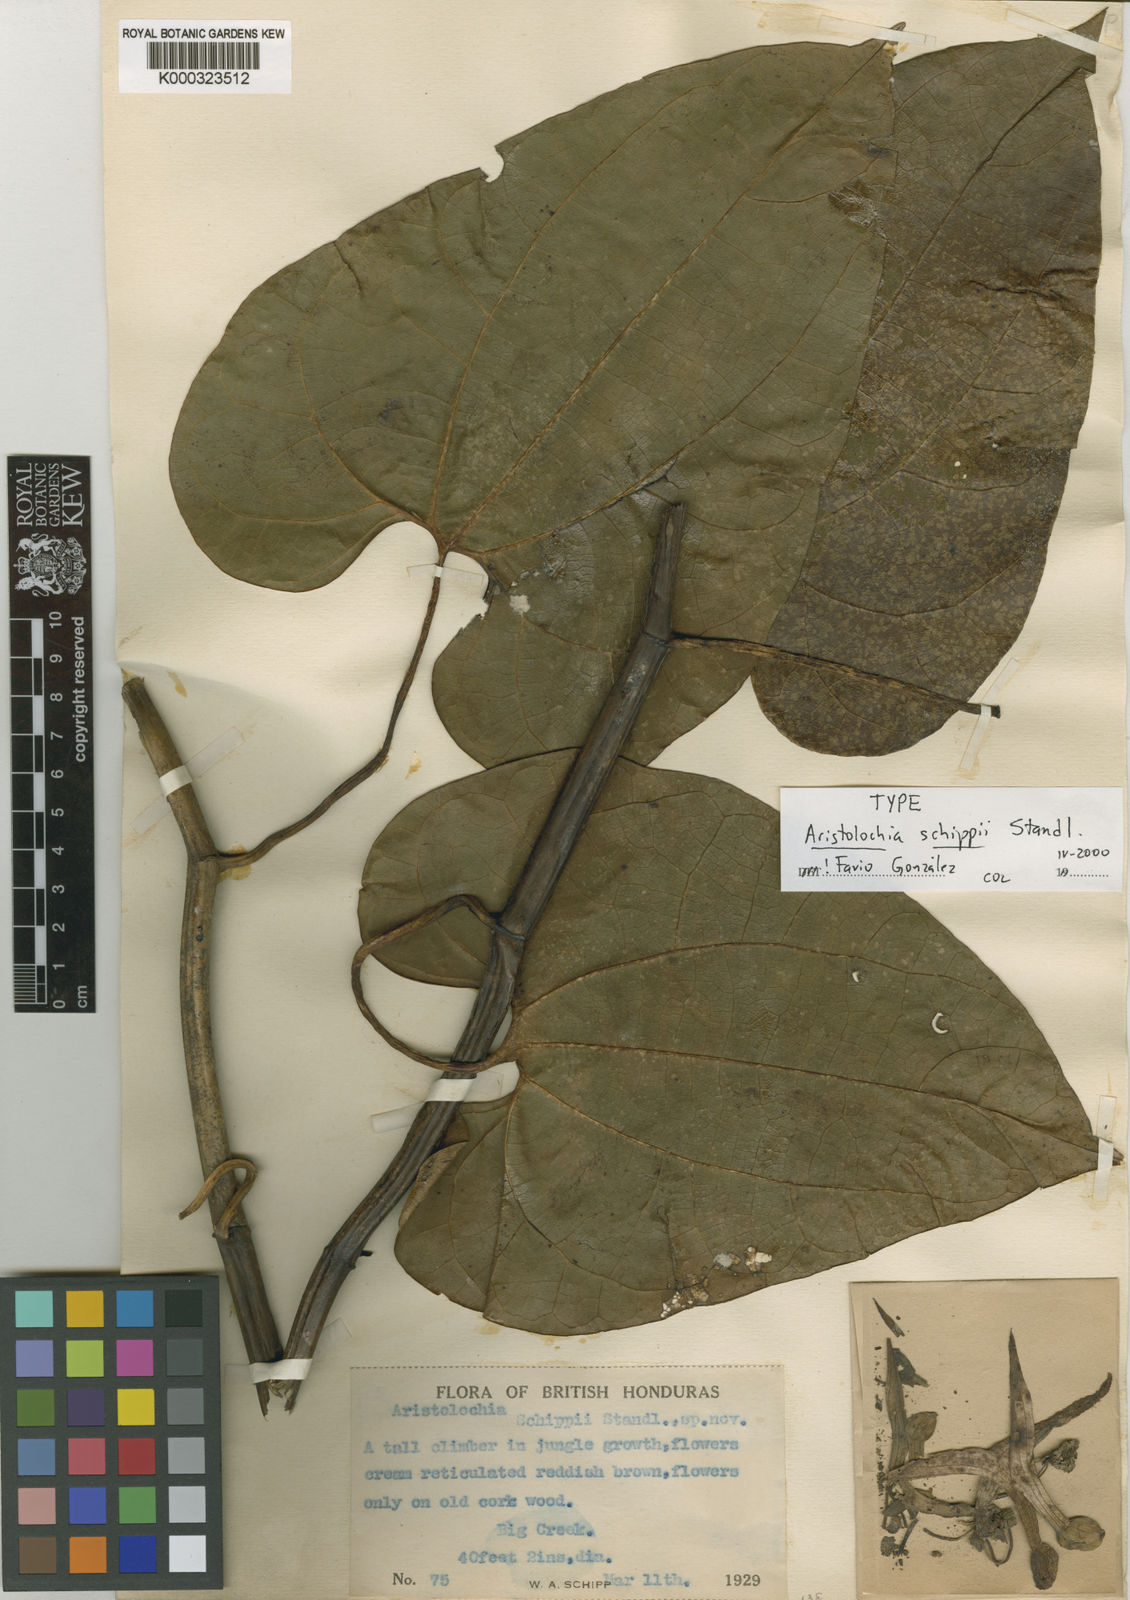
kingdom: Plantae
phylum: Tracheophyta
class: Magnoliopsida
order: Piperales
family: Aristolochiaceae
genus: Aristolochia
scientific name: Aristolochia leuconeura
